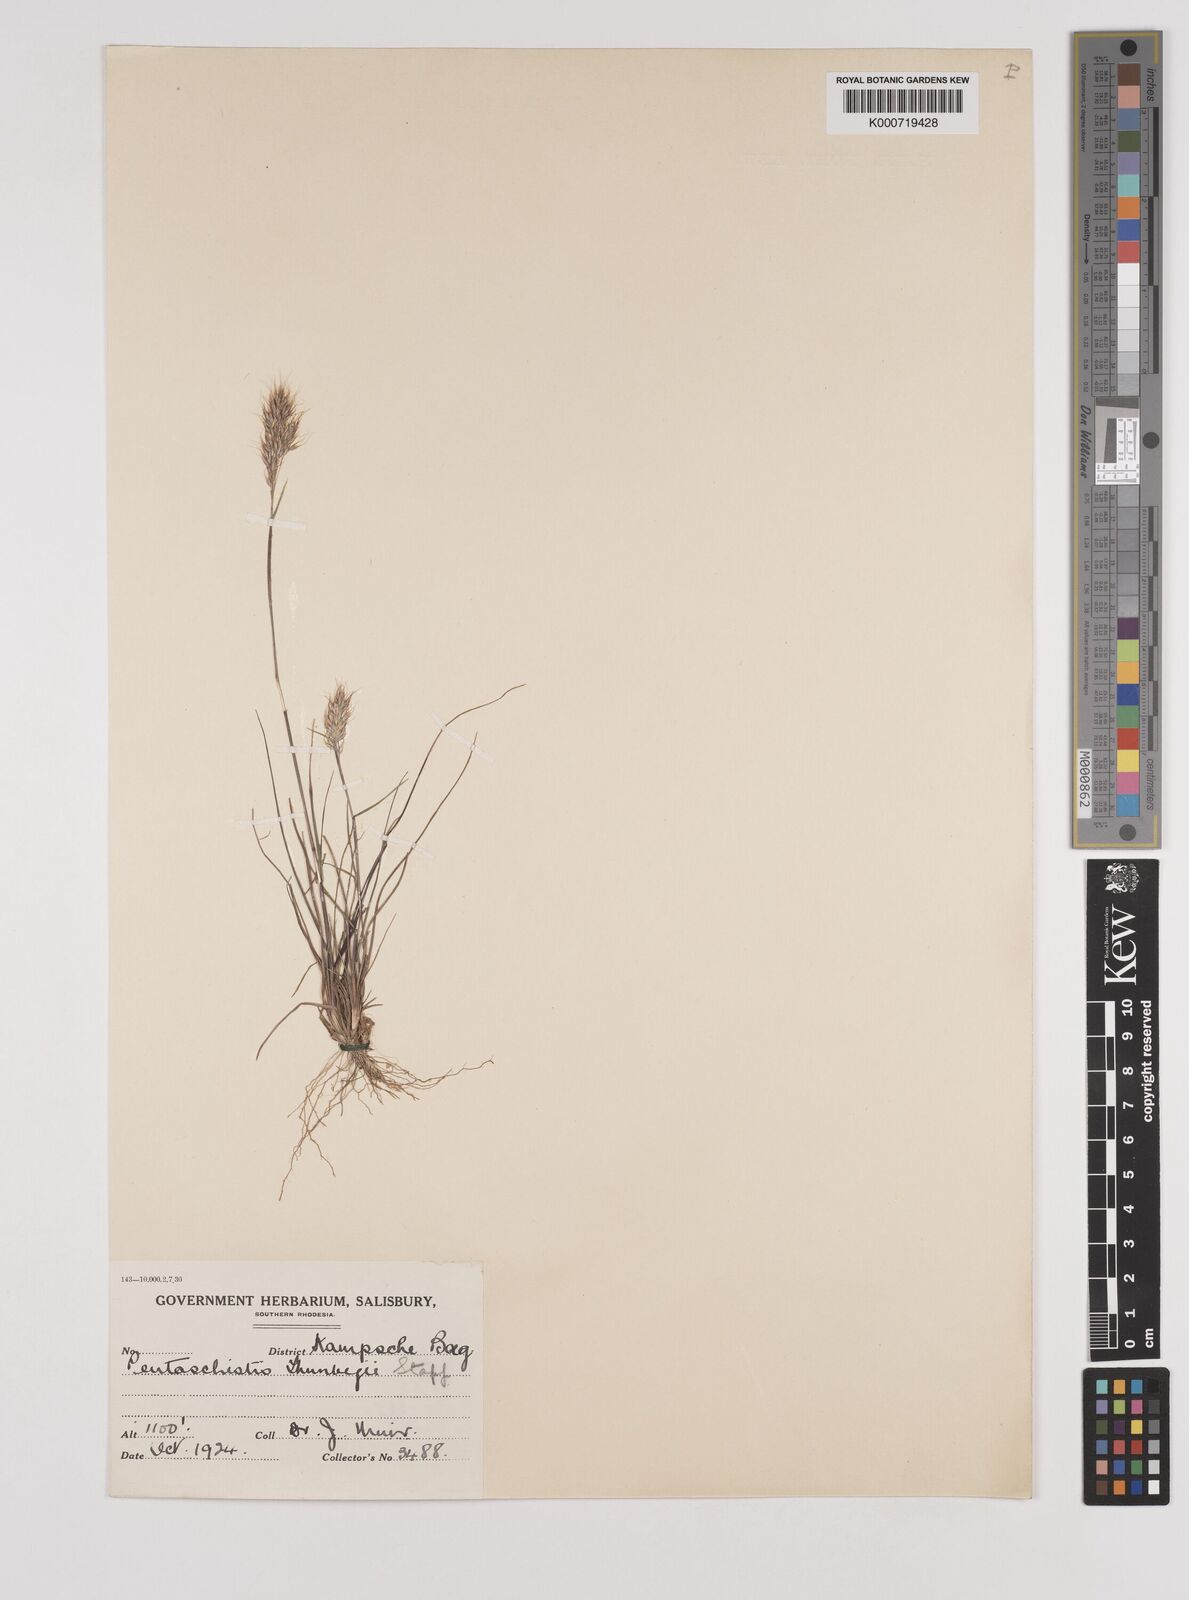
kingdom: Plantae
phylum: Tracheophyta
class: Liliopsida
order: Poales
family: Poaceae
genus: Pentameris
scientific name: Pentameris triseta
